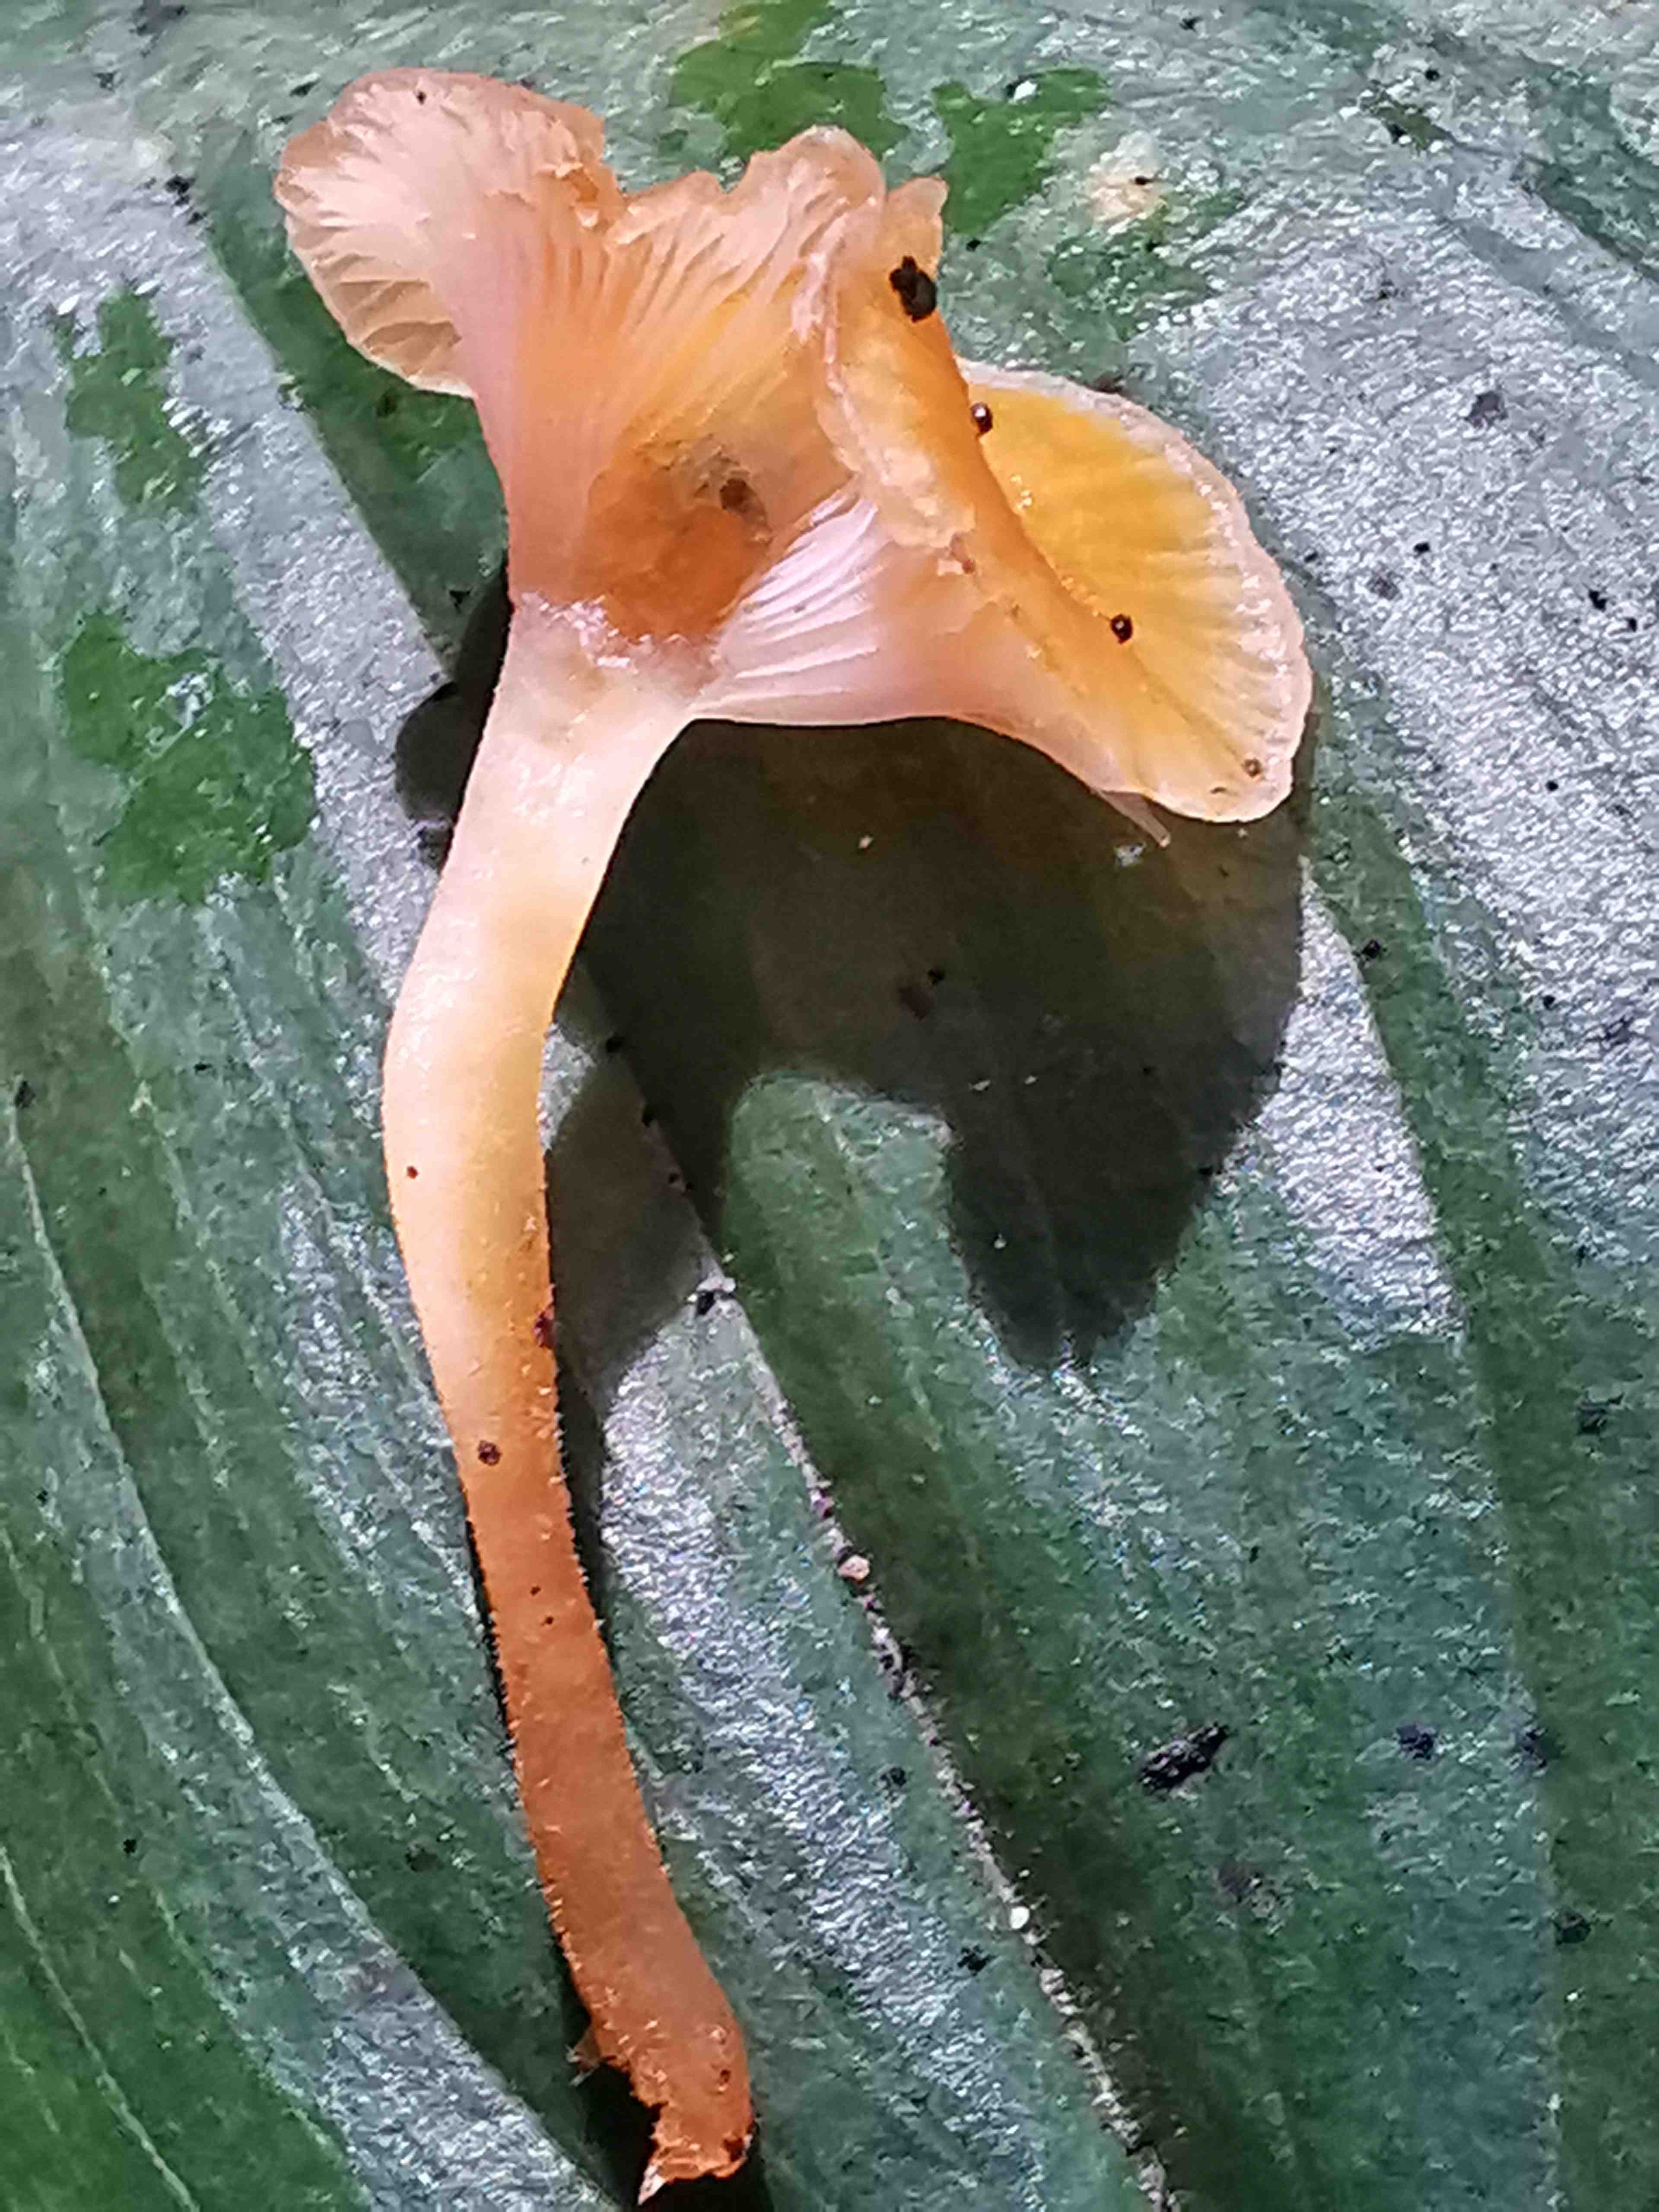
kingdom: Fungi
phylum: Basidiomycota
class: Agaricomycetes
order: Hymenochaetales
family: Rickenellaceae
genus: Rickenella
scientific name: Rickenella fibula
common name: orange mosnavlehat
